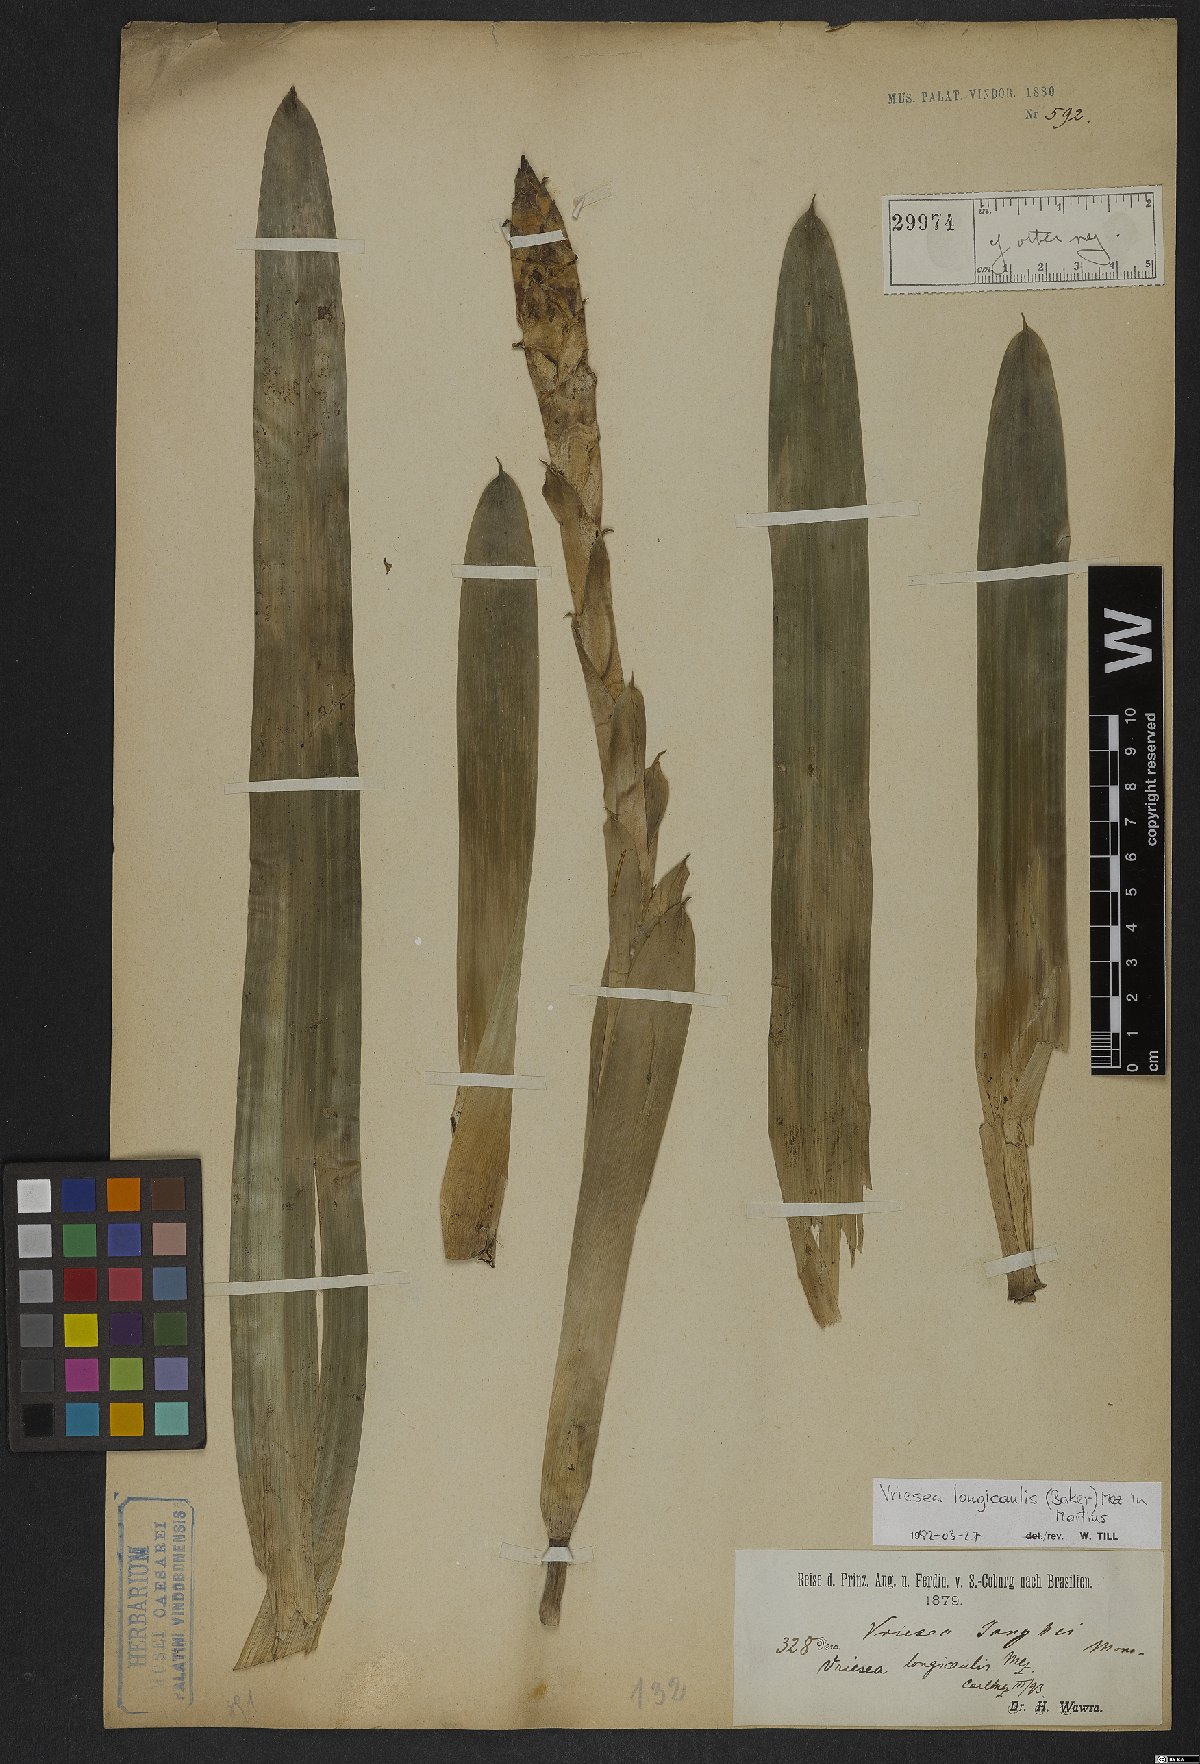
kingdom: Plantae
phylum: Tracheophyta
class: Liliopsida
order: Poales
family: Bromeliaceae
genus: Vriesea
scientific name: Vriesea longicaulis
